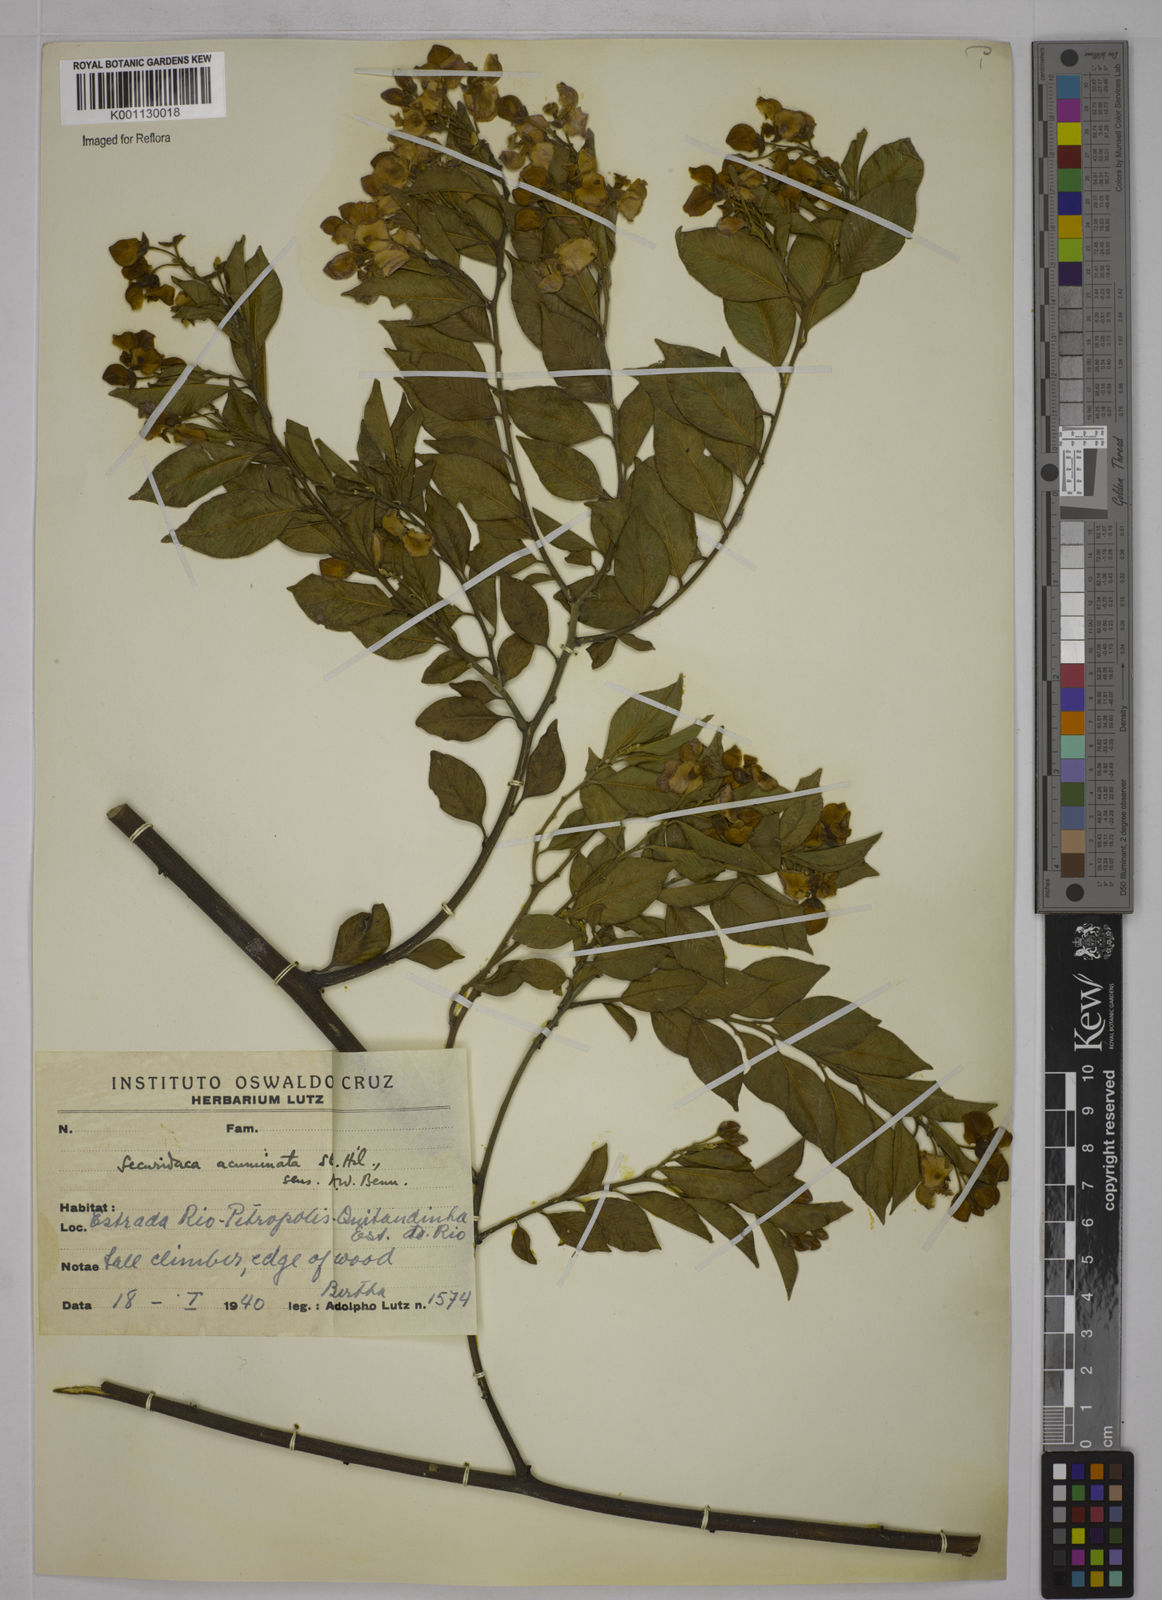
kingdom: Plantae
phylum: Tracheophyta
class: Magnoliopsida
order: Fabales
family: Polygalaceae
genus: Securidaca
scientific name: Securidaca acuminata
